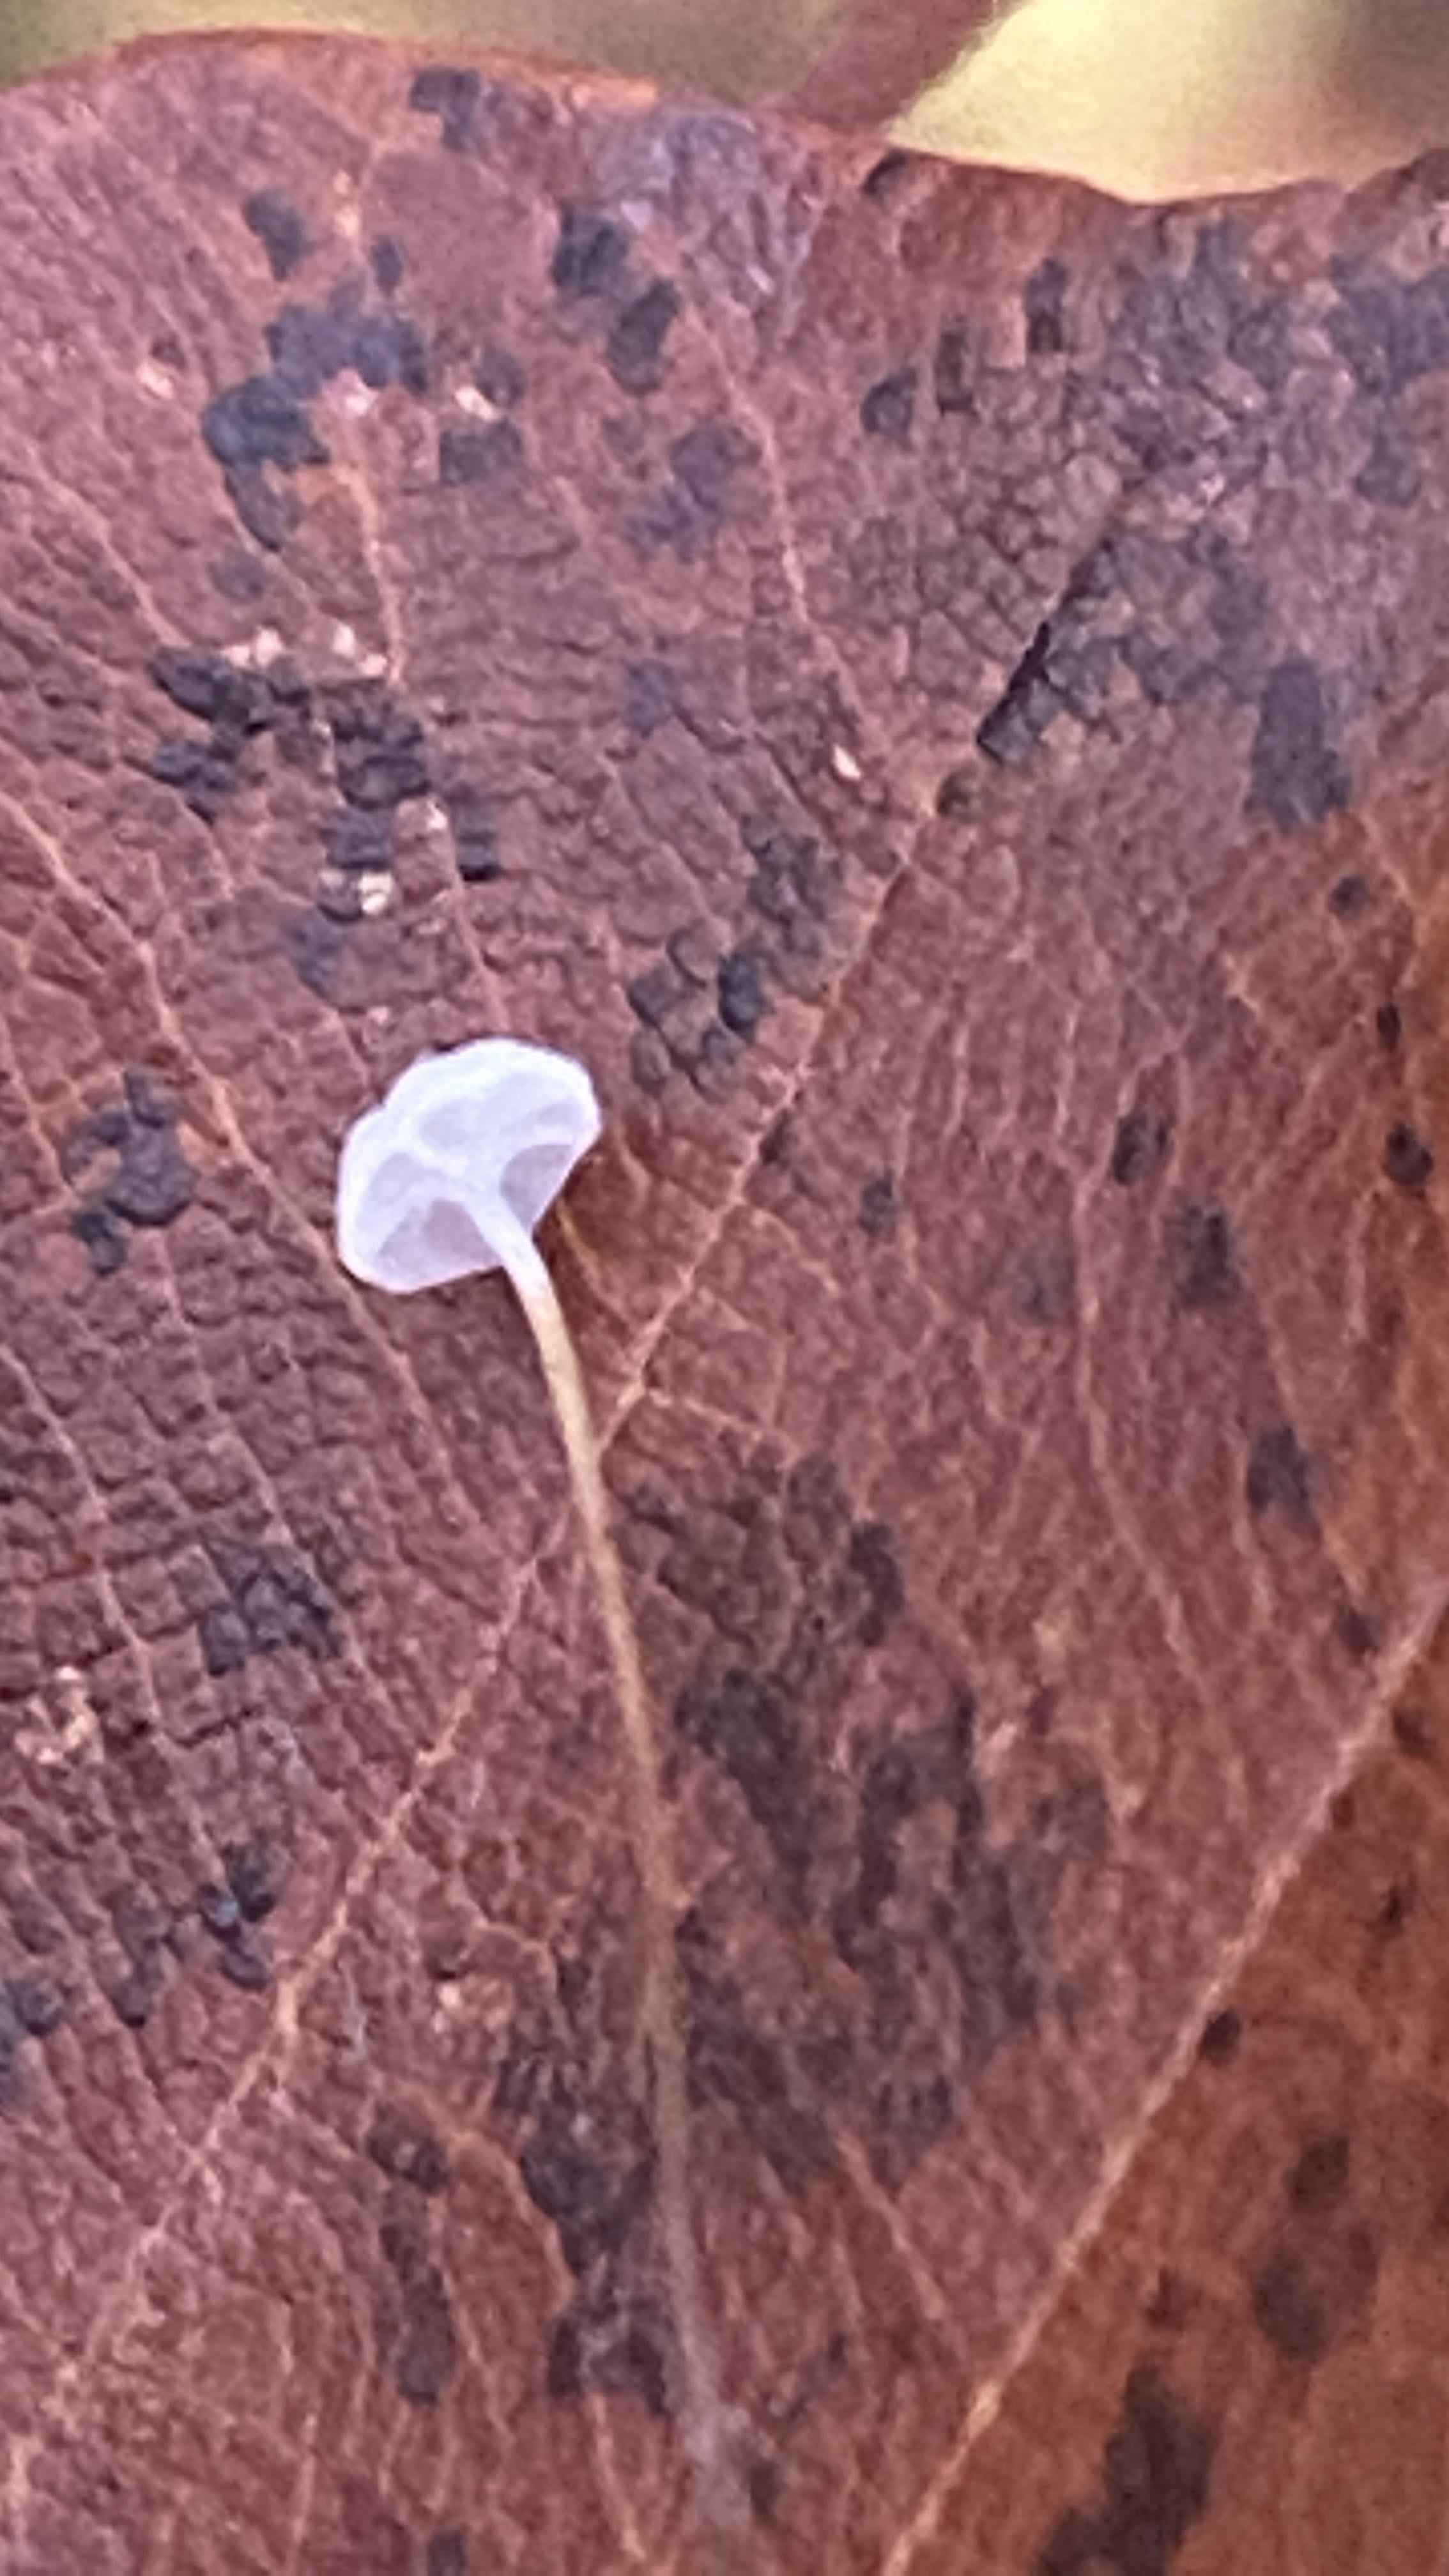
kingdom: Fungi
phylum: Basidiomycota
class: Agaricomycetes
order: Agaricales
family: Physalacriaceae
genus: Rhizomarasmius
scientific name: Rhizomarasmius setosus
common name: bøgeblads-bruskhat
